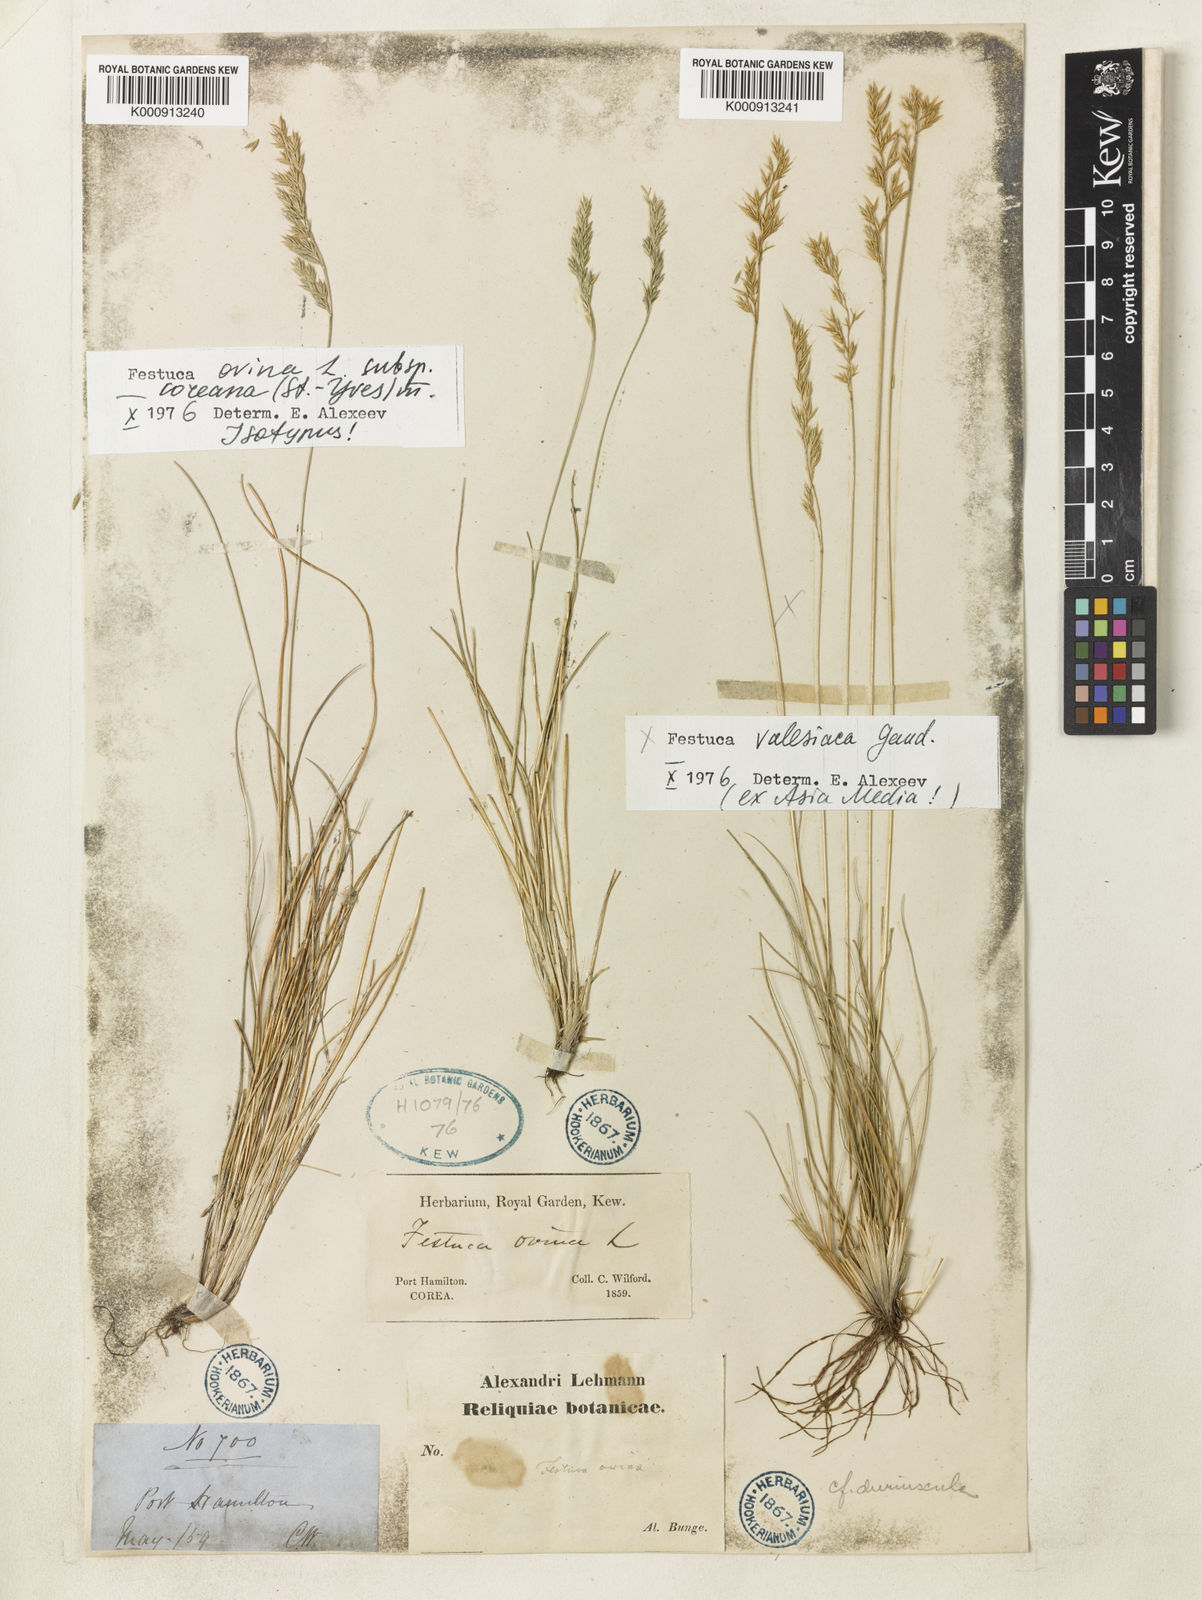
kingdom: Plantae
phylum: Tracheophyta
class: Liliopsida
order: Poales
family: Poaceae
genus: Festuca
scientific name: Festuca ovina
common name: Sheep fescue
